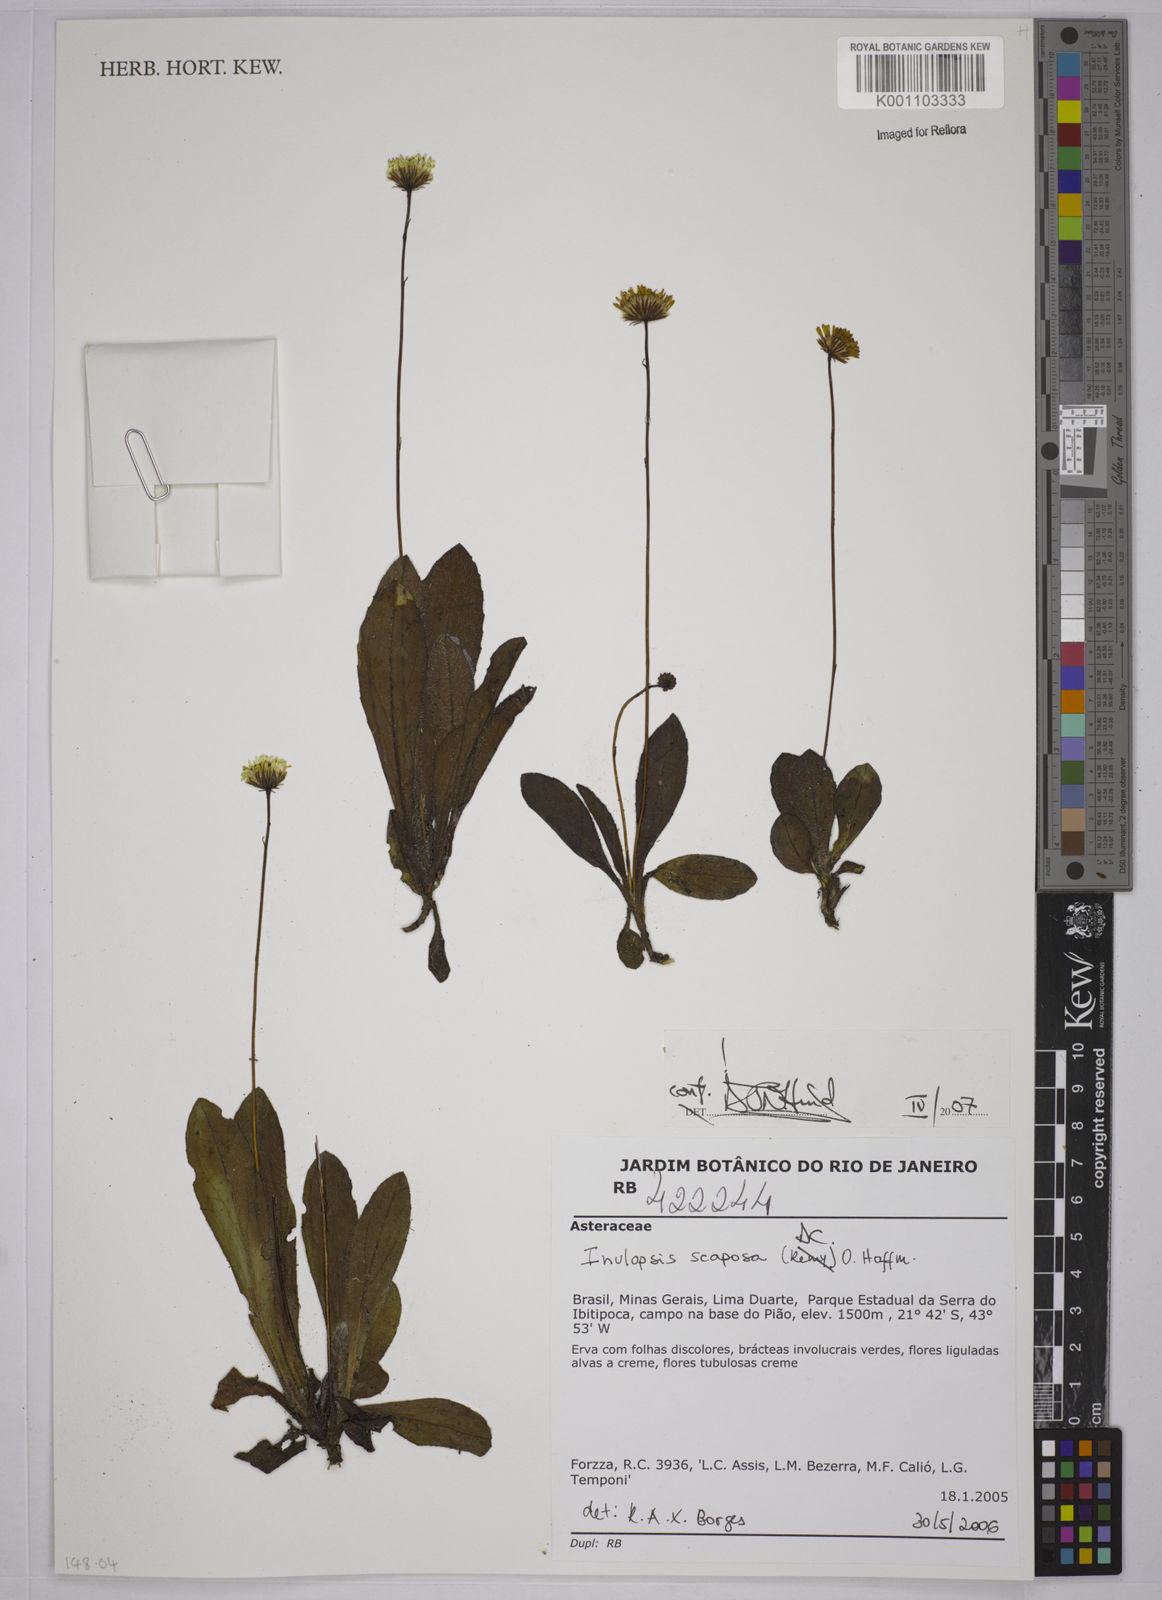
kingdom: Plantae
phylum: Tracheophyta
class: Magnoliopsida
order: Asterales
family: Asteraceae
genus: Inulopsis
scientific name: Inulopsis scaposa
